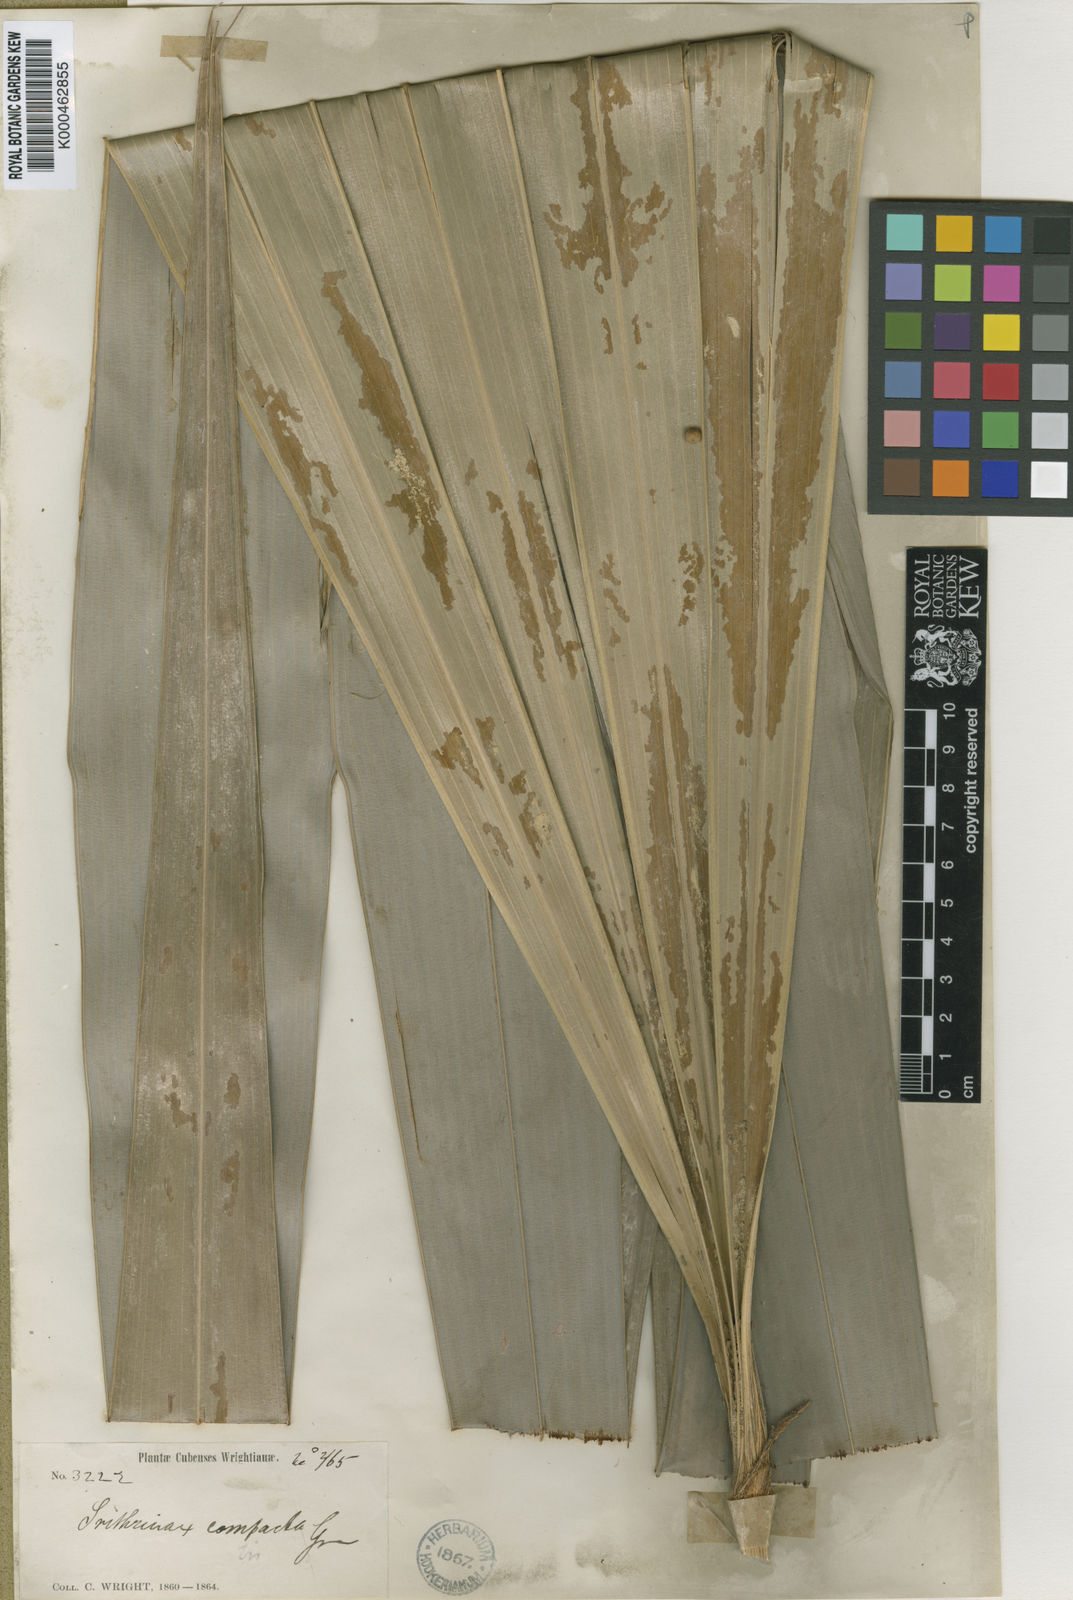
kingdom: Plantae
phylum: Tracheophyta
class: Liliopsida
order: Arecales
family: Arecaceae
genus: Hemithrinax
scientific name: Hemithrinax
